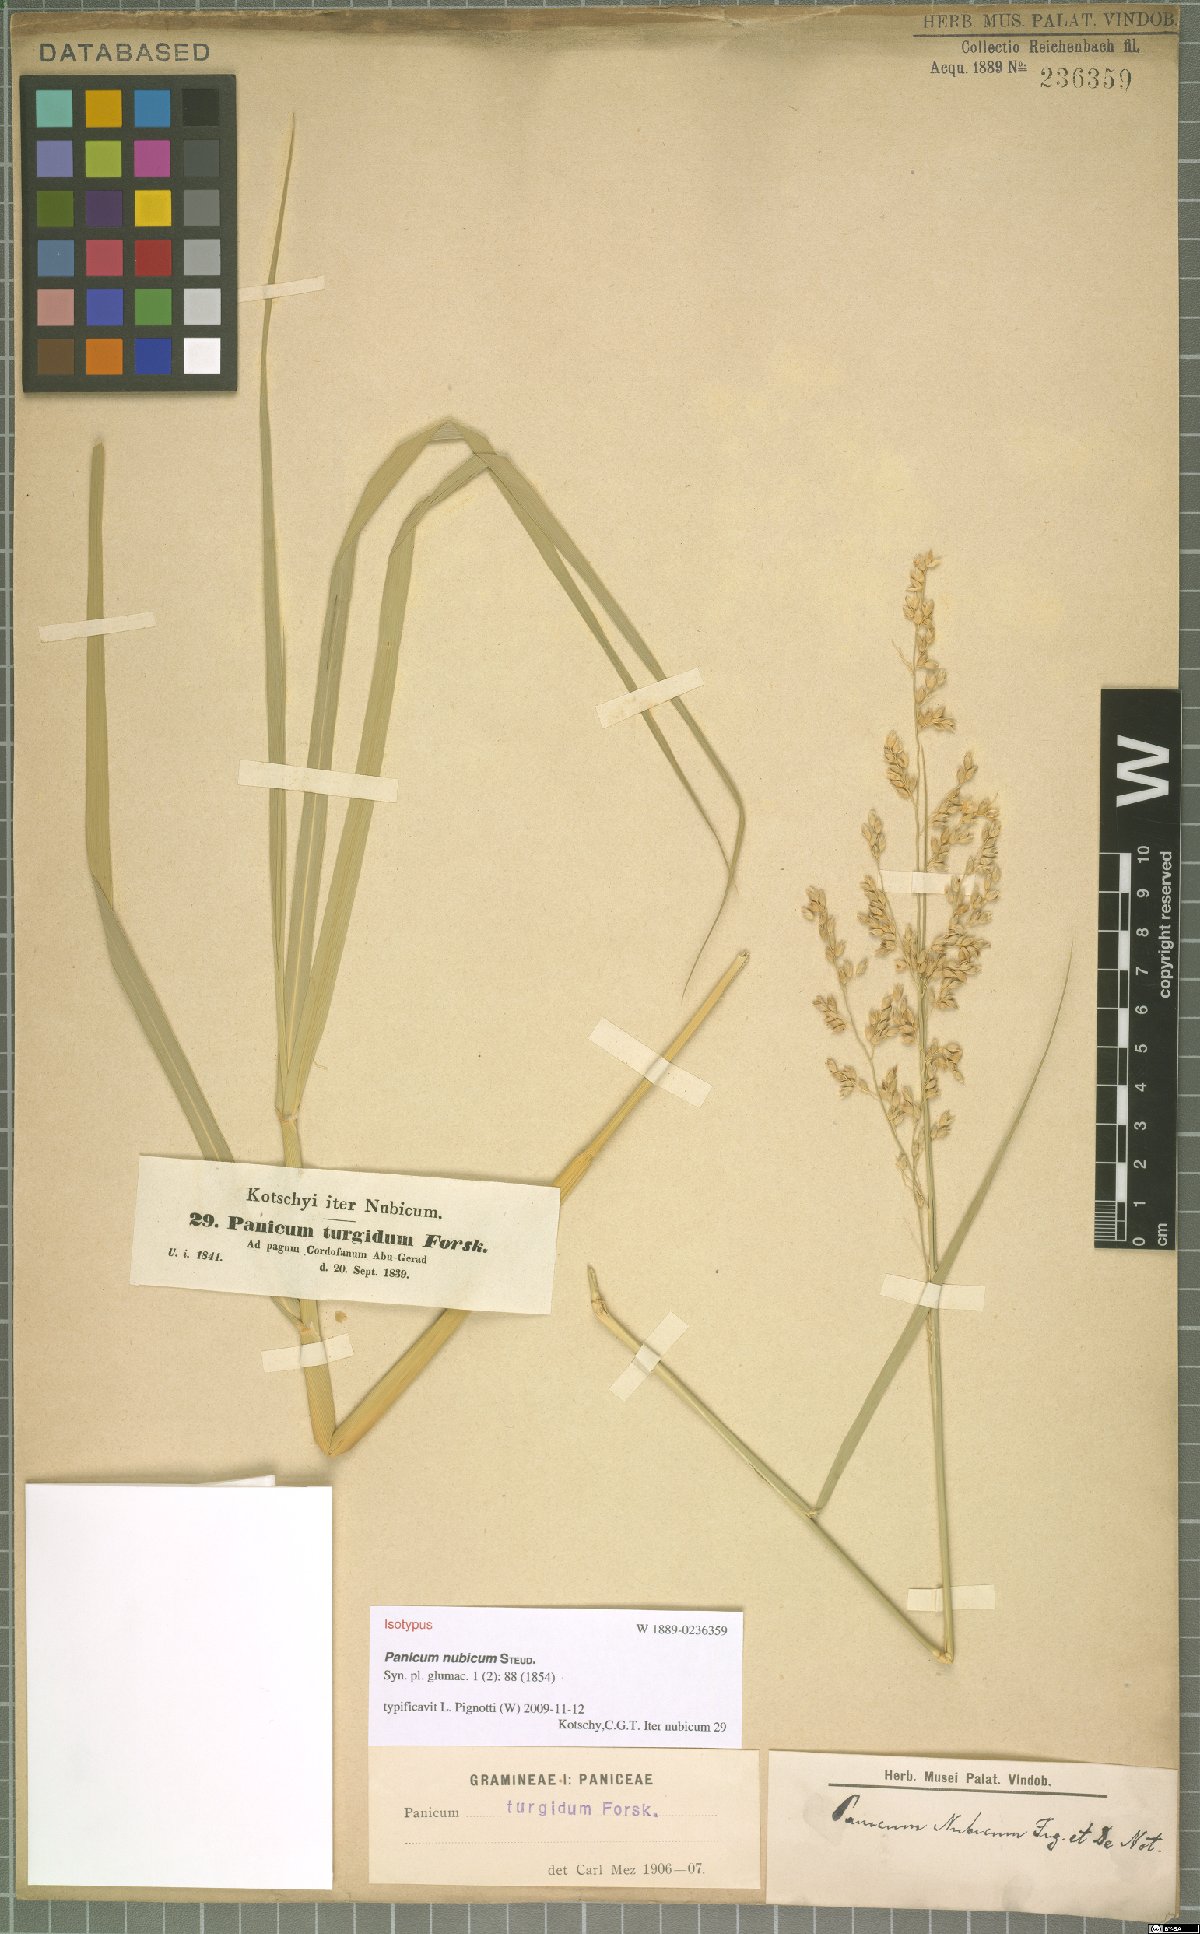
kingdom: Plantae
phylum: Tracheophyta
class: Liliopsida
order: Poales
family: Poaceae
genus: Panicum
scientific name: Panicum nubicum
